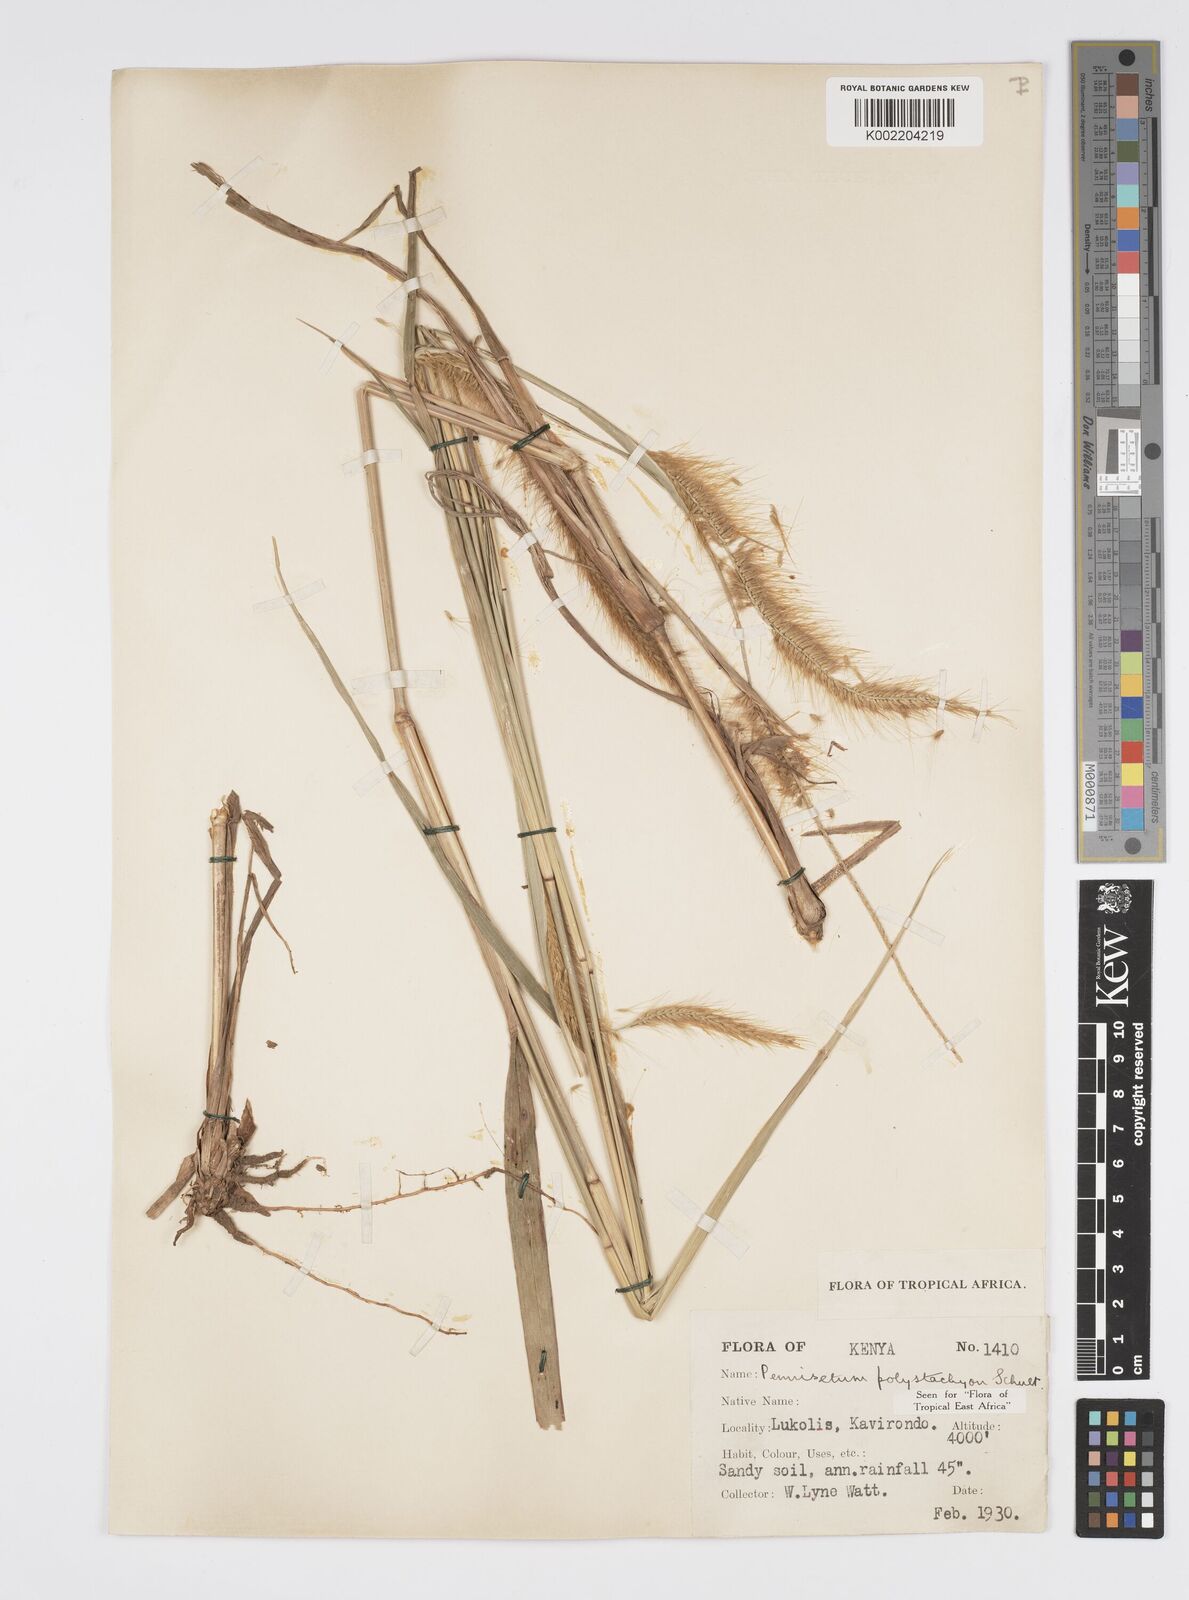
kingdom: Plantae
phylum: Tracheophyta
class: Liliopsida
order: Poales
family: Poaceae
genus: Setaria
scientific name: Setaria parviflora
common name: Knotroot bristle-grass
